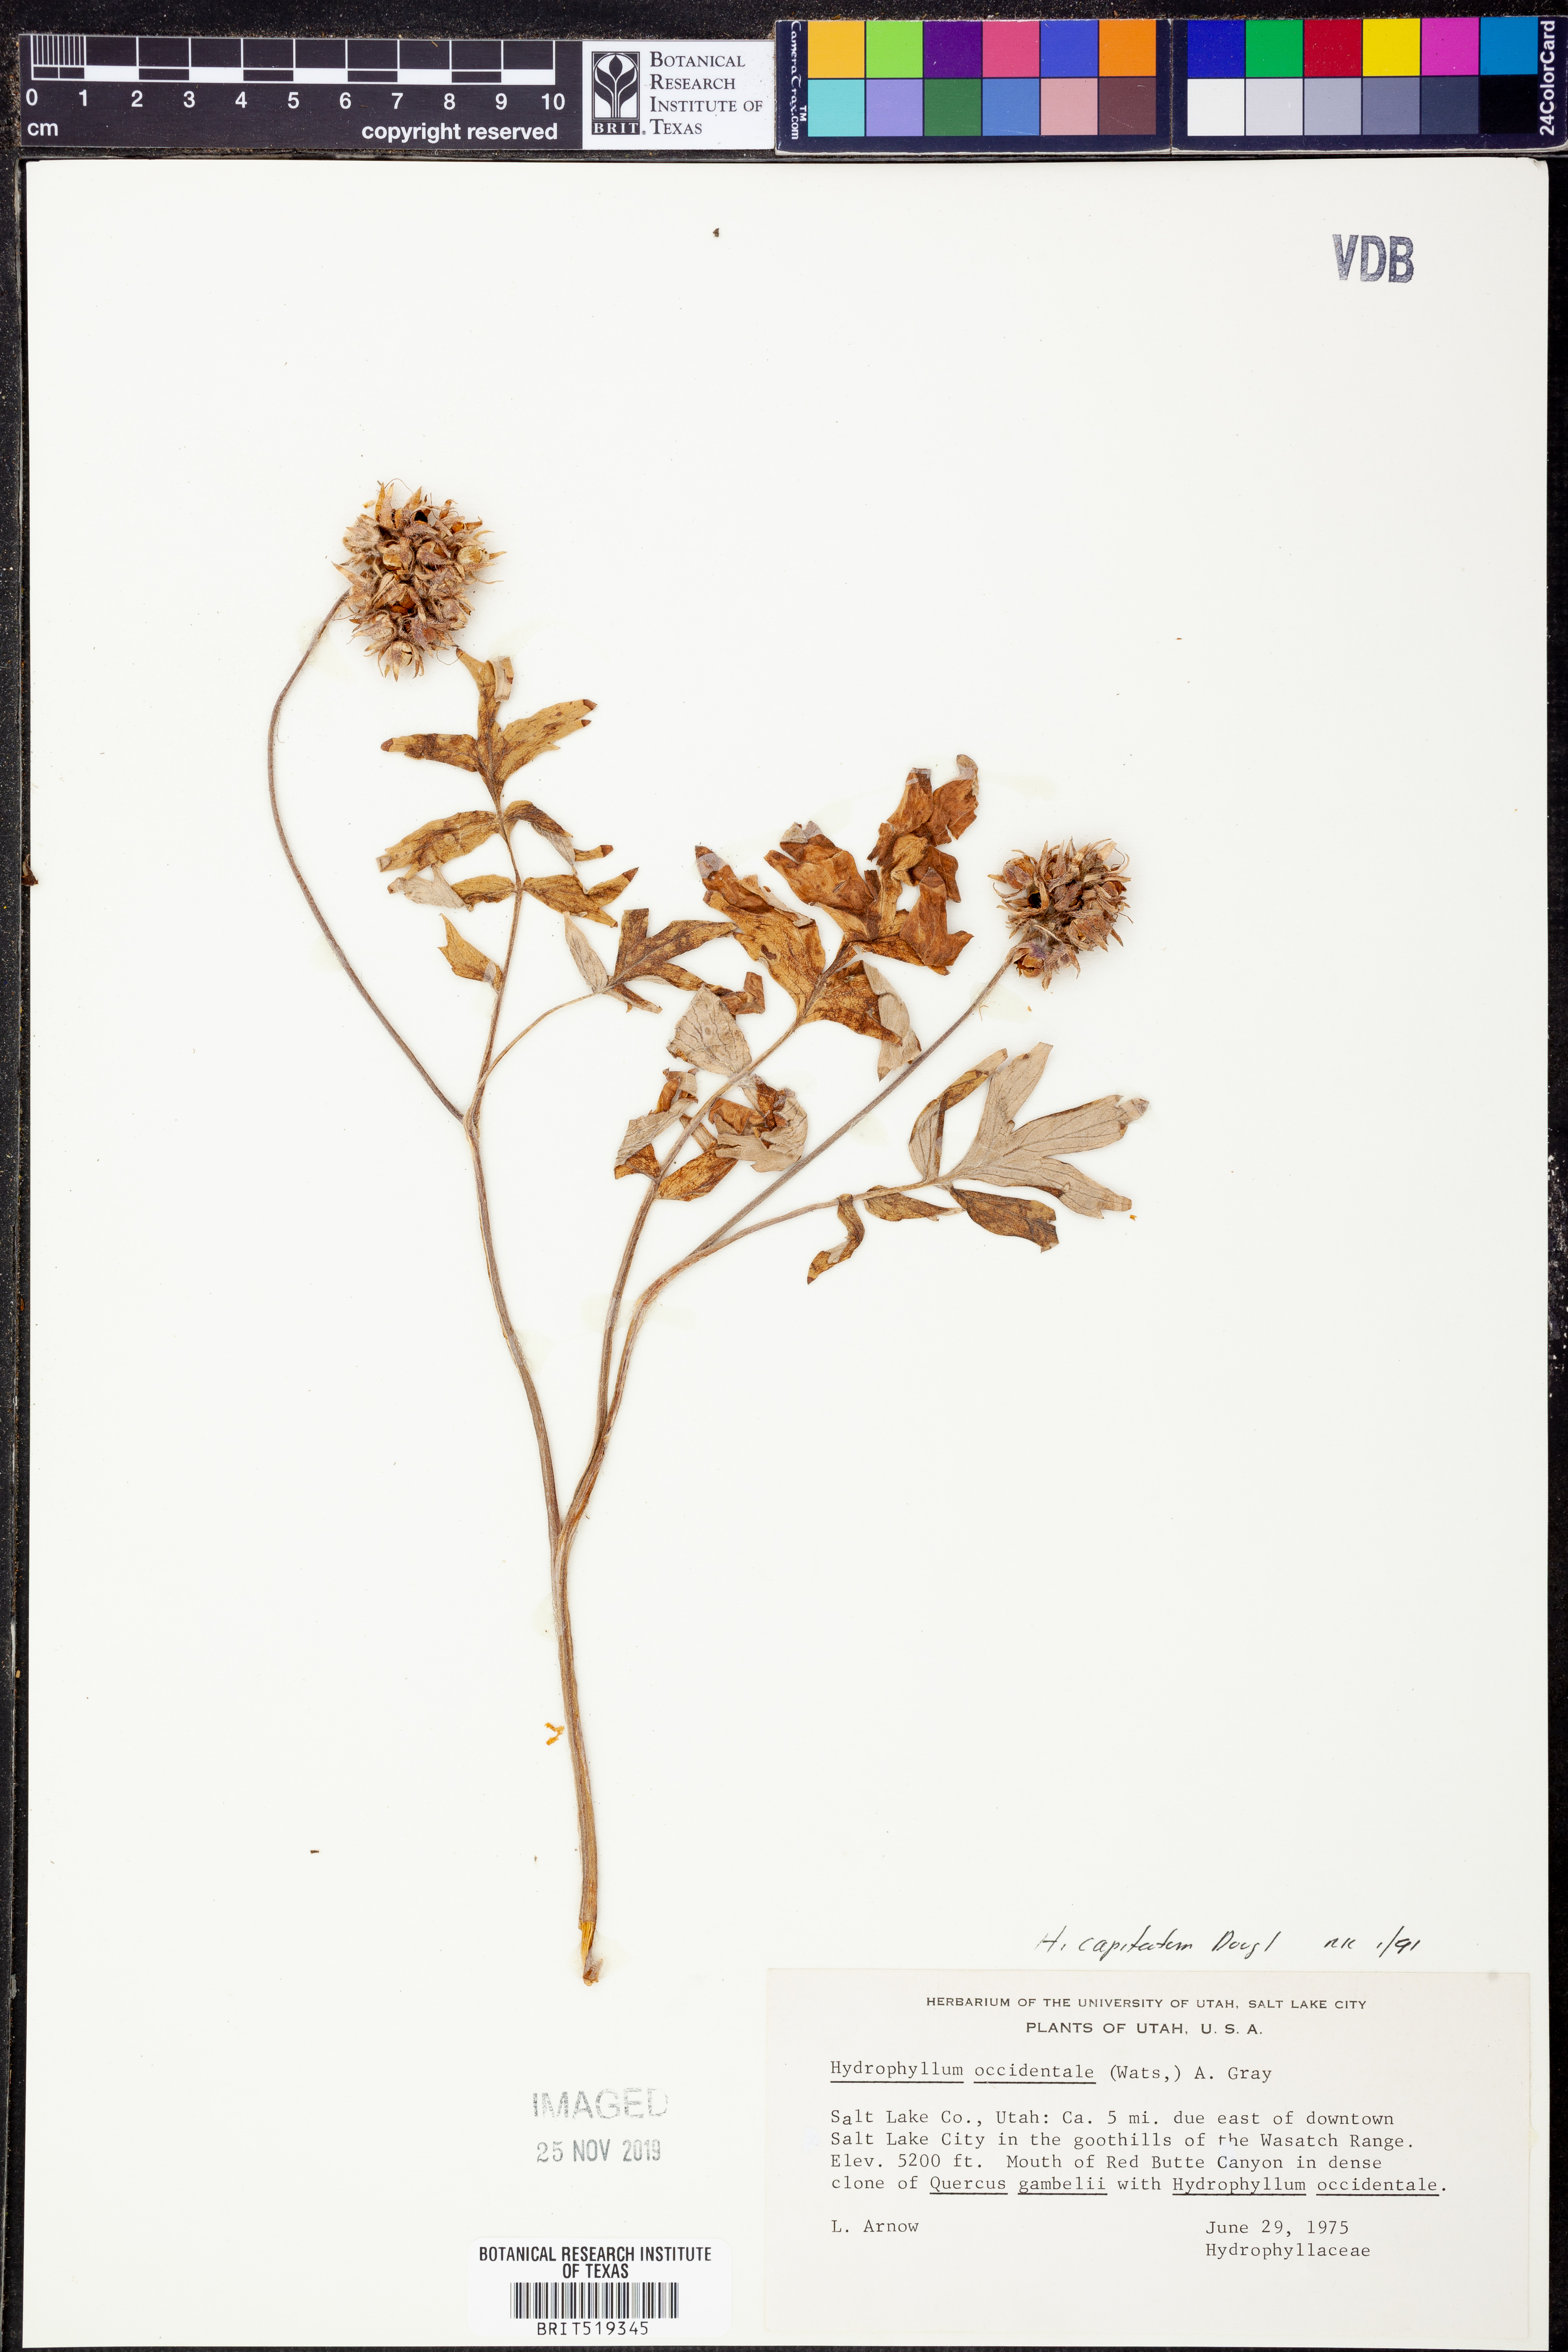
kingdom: Plantae
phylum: Tracheophyta
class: Magnoliopsida
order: Boraginales
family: Hydrophyllaceae
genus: Hydrophyllum
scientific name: Hydrophyllum capitatum
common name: Woollen-breeches
